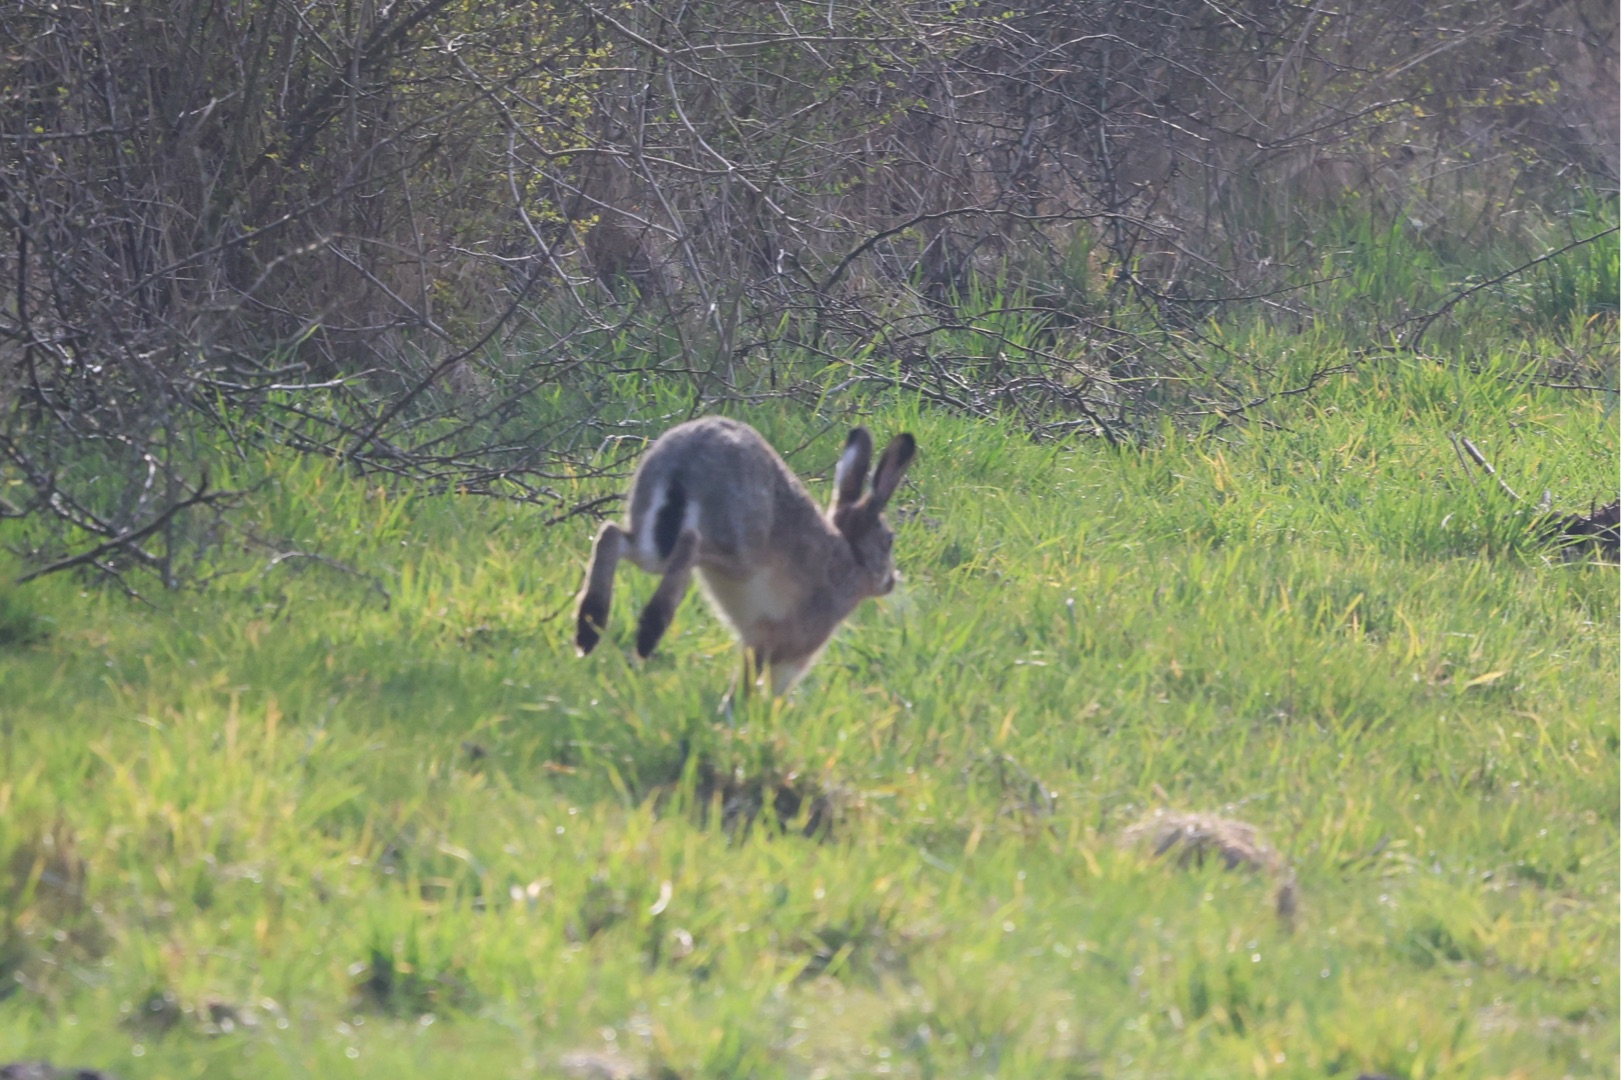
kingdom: Animalia
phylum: Chordata
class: Mammalia
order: Lagomorpha
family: Leporidae
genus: Lepus
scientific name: Lepus europaeus
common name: Hare
